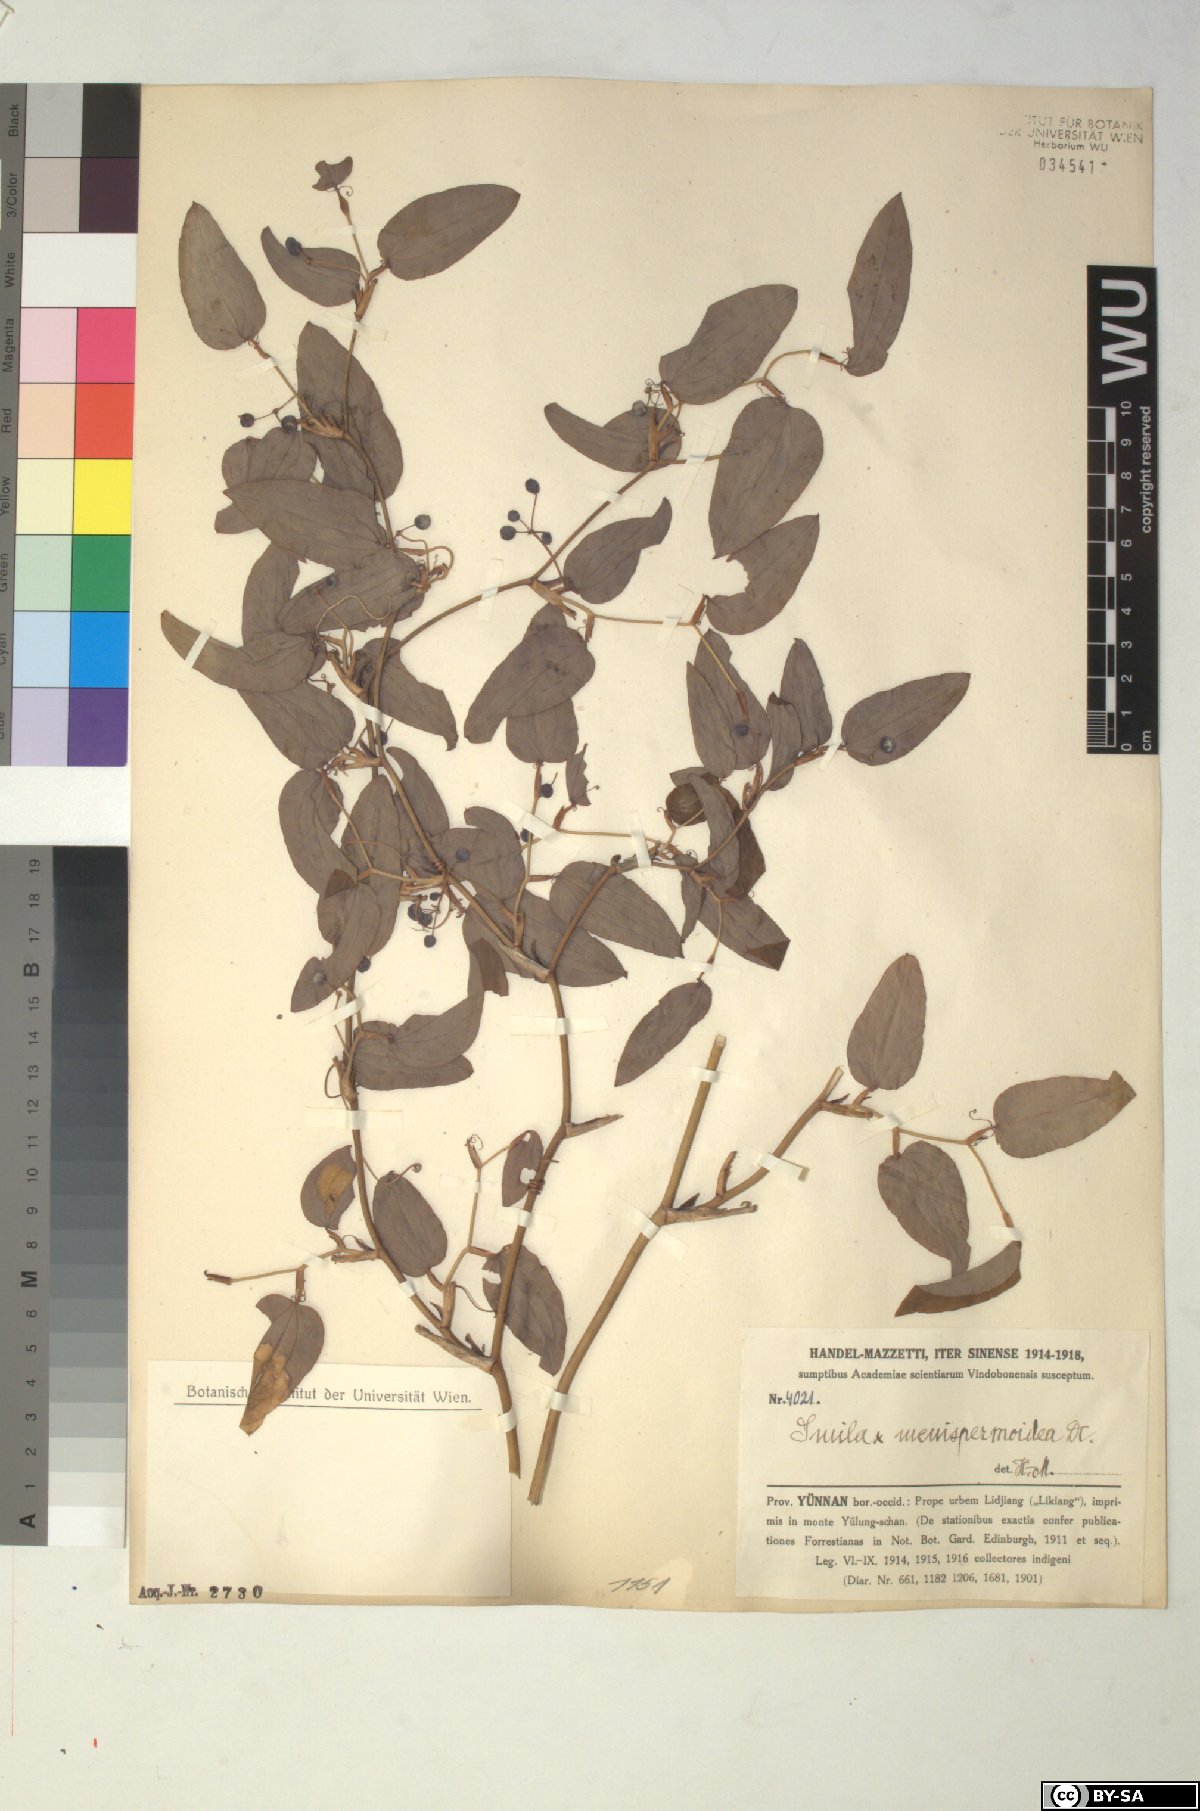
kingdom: Plantae
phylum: Tracheophyta
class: Liliopsida
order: Liliales
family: Smilacaceae
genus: Smilax
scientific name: Smilax menispermoidea
